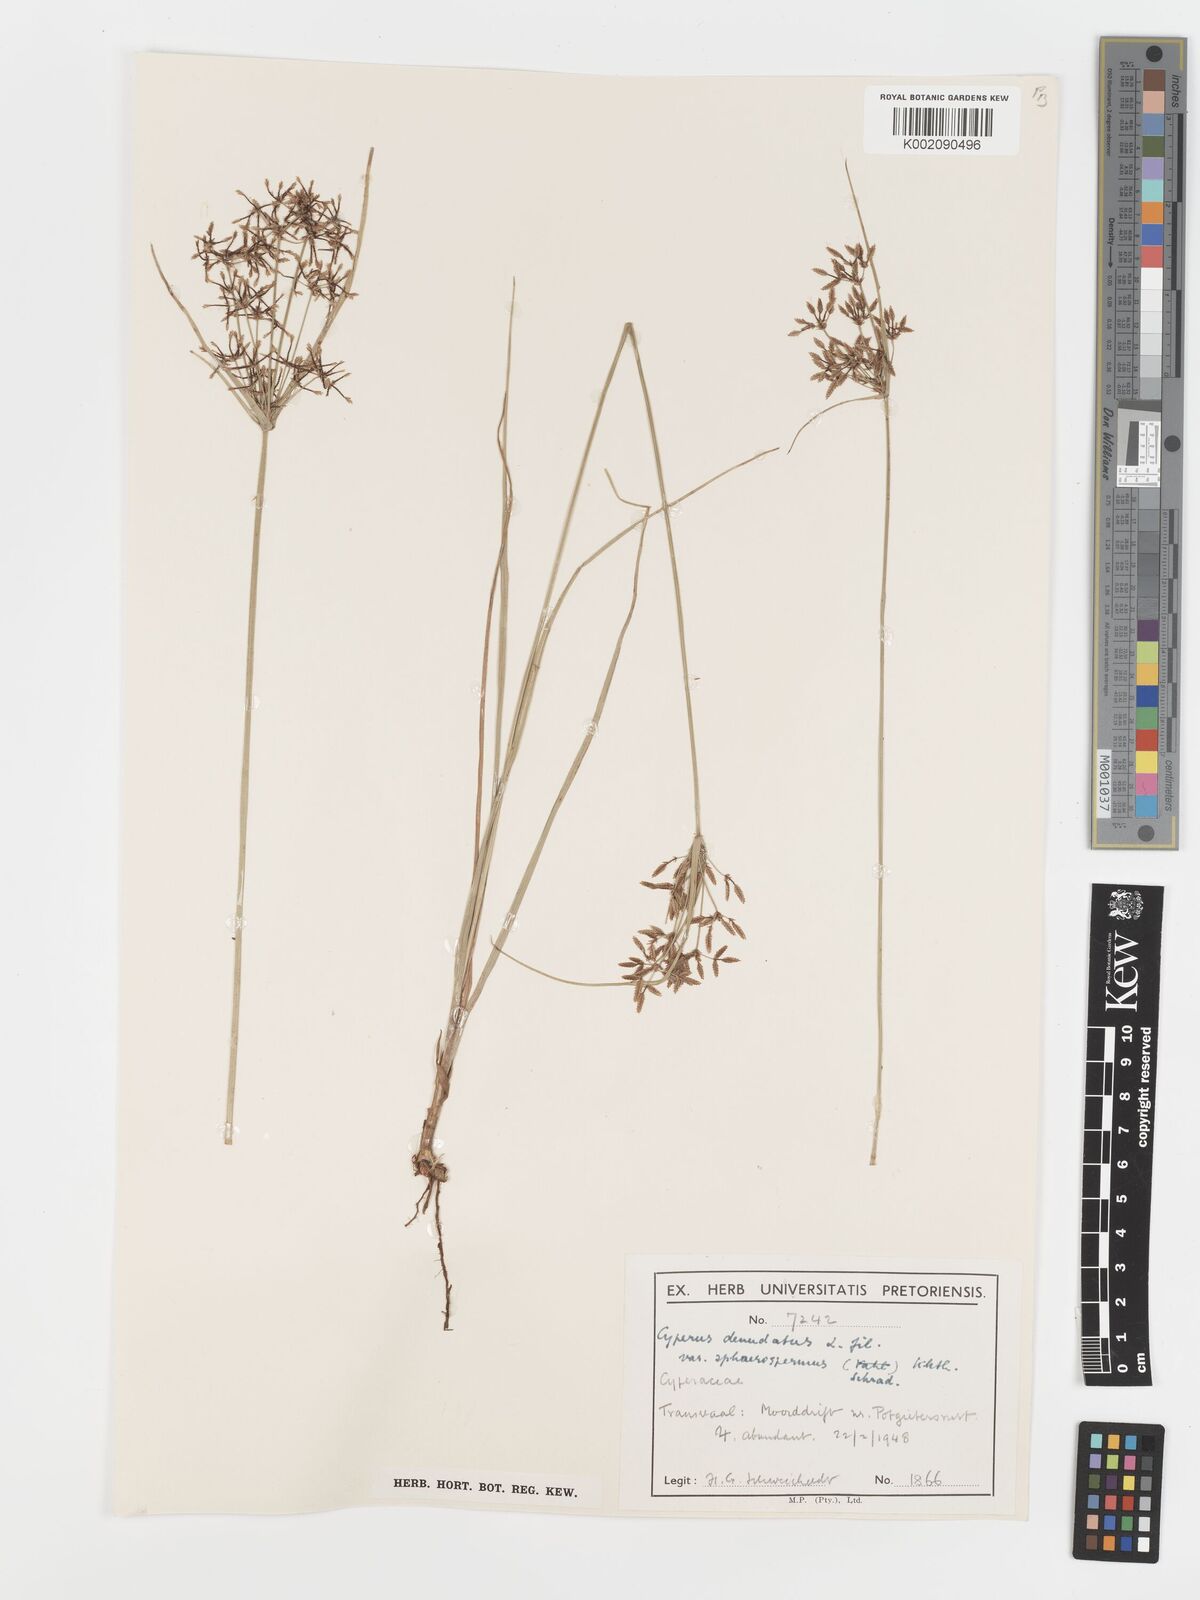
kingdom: Plantae
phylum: Tracheophyta
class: Liliopsida
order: Poales
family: Cyperaceae
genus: Cyperus
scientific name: Cyperus sphaerospermus
